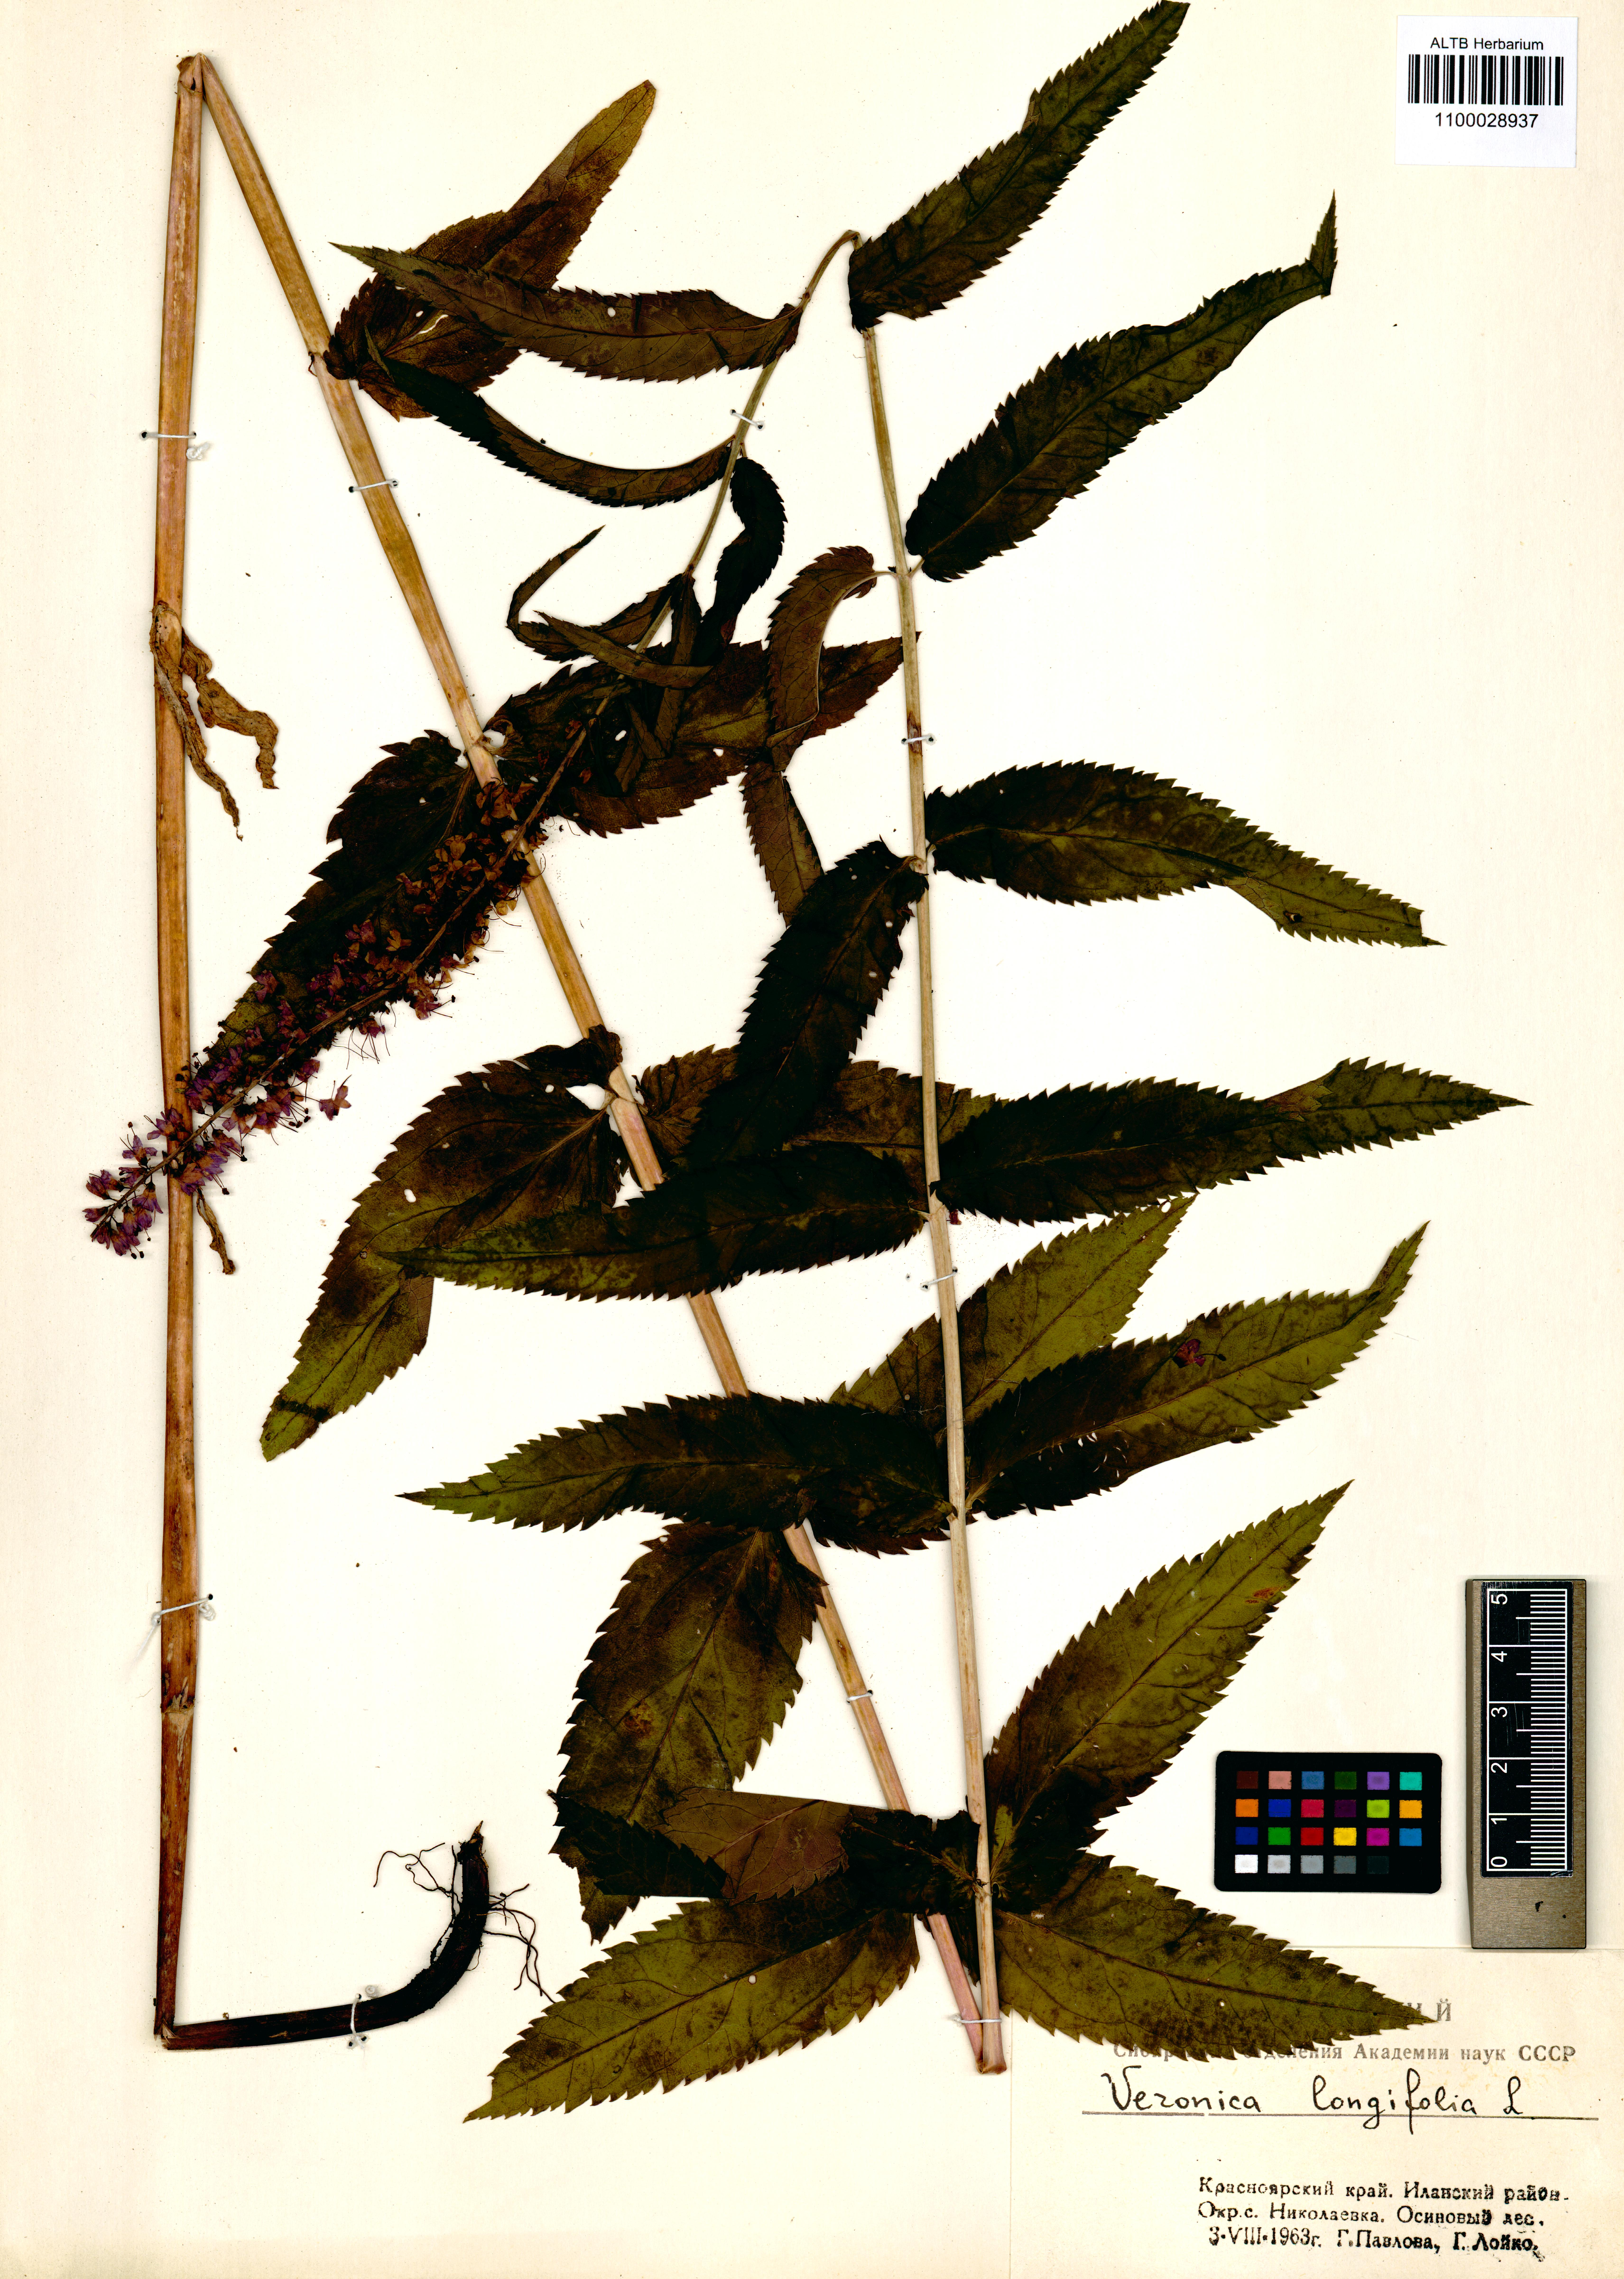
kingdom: Plantae
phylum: Tracheophyta
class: Magnoliopsida
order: Lamiales
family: Plantaginaceae
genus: Veronica
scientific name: Veronica longifolia
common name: Garden speedwell
